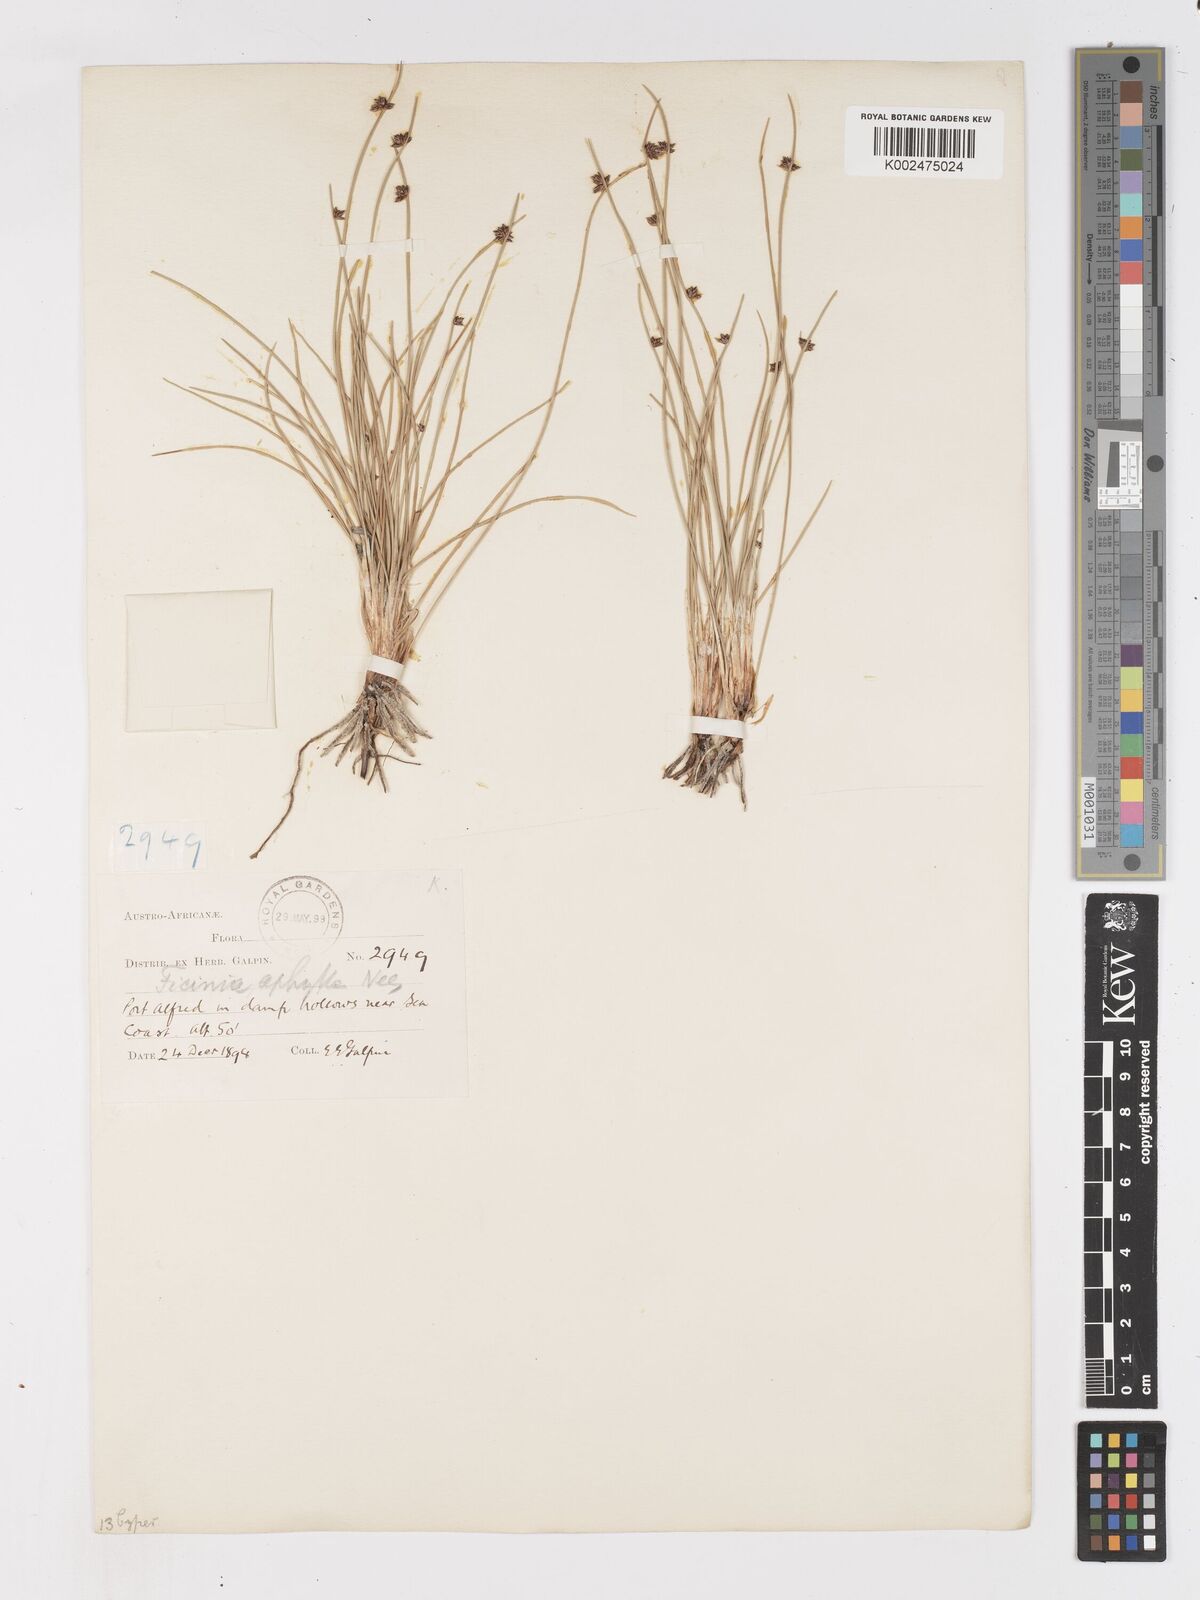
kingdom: Plantae
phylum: Tracheophyta
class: Liliopsida
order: Poales
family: Cyperaceae
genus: Ficinia
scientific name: Ficinia lateralis
